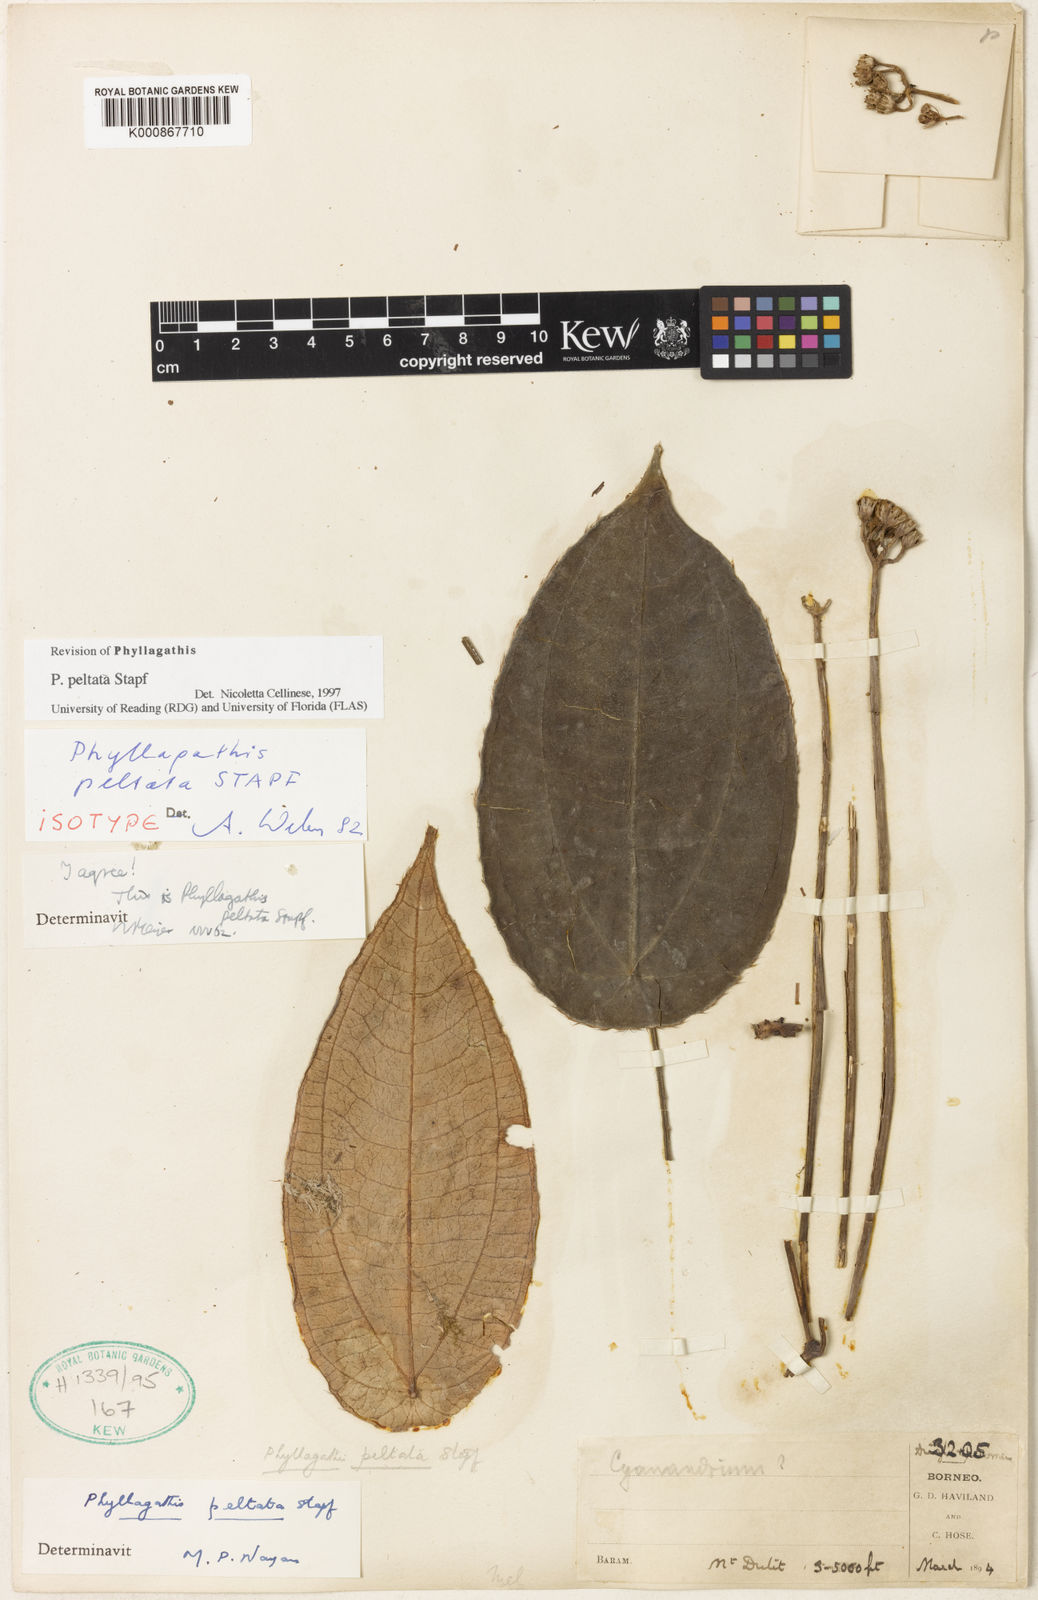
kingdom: Plantae
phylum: Tracheophyta
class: Magnoliopsida
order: Myrtales
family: Melastomataceae
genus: Phyllagathis
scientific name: Phyllagathis peltata
